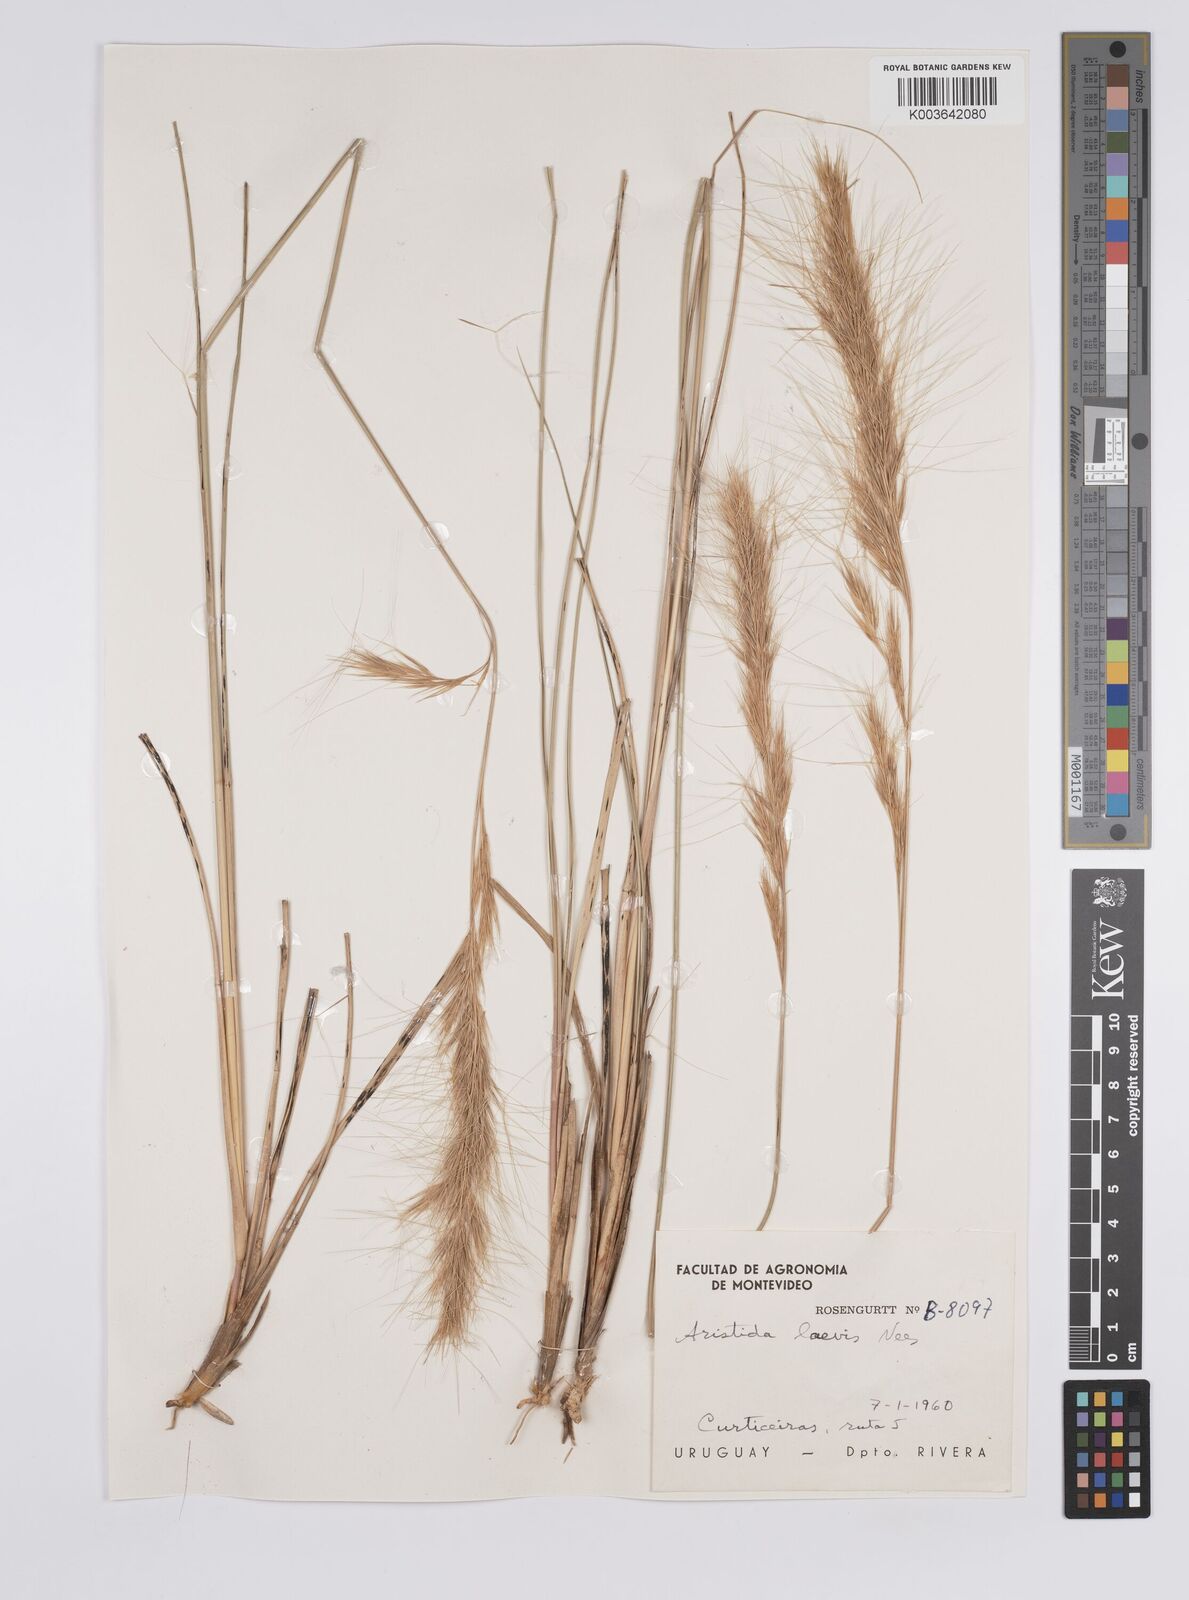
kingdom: Plantae
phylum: Tracheophyta
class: Liliopsida
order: Poales
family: Poaceae
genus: Aristida
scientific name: Aristida laevis
